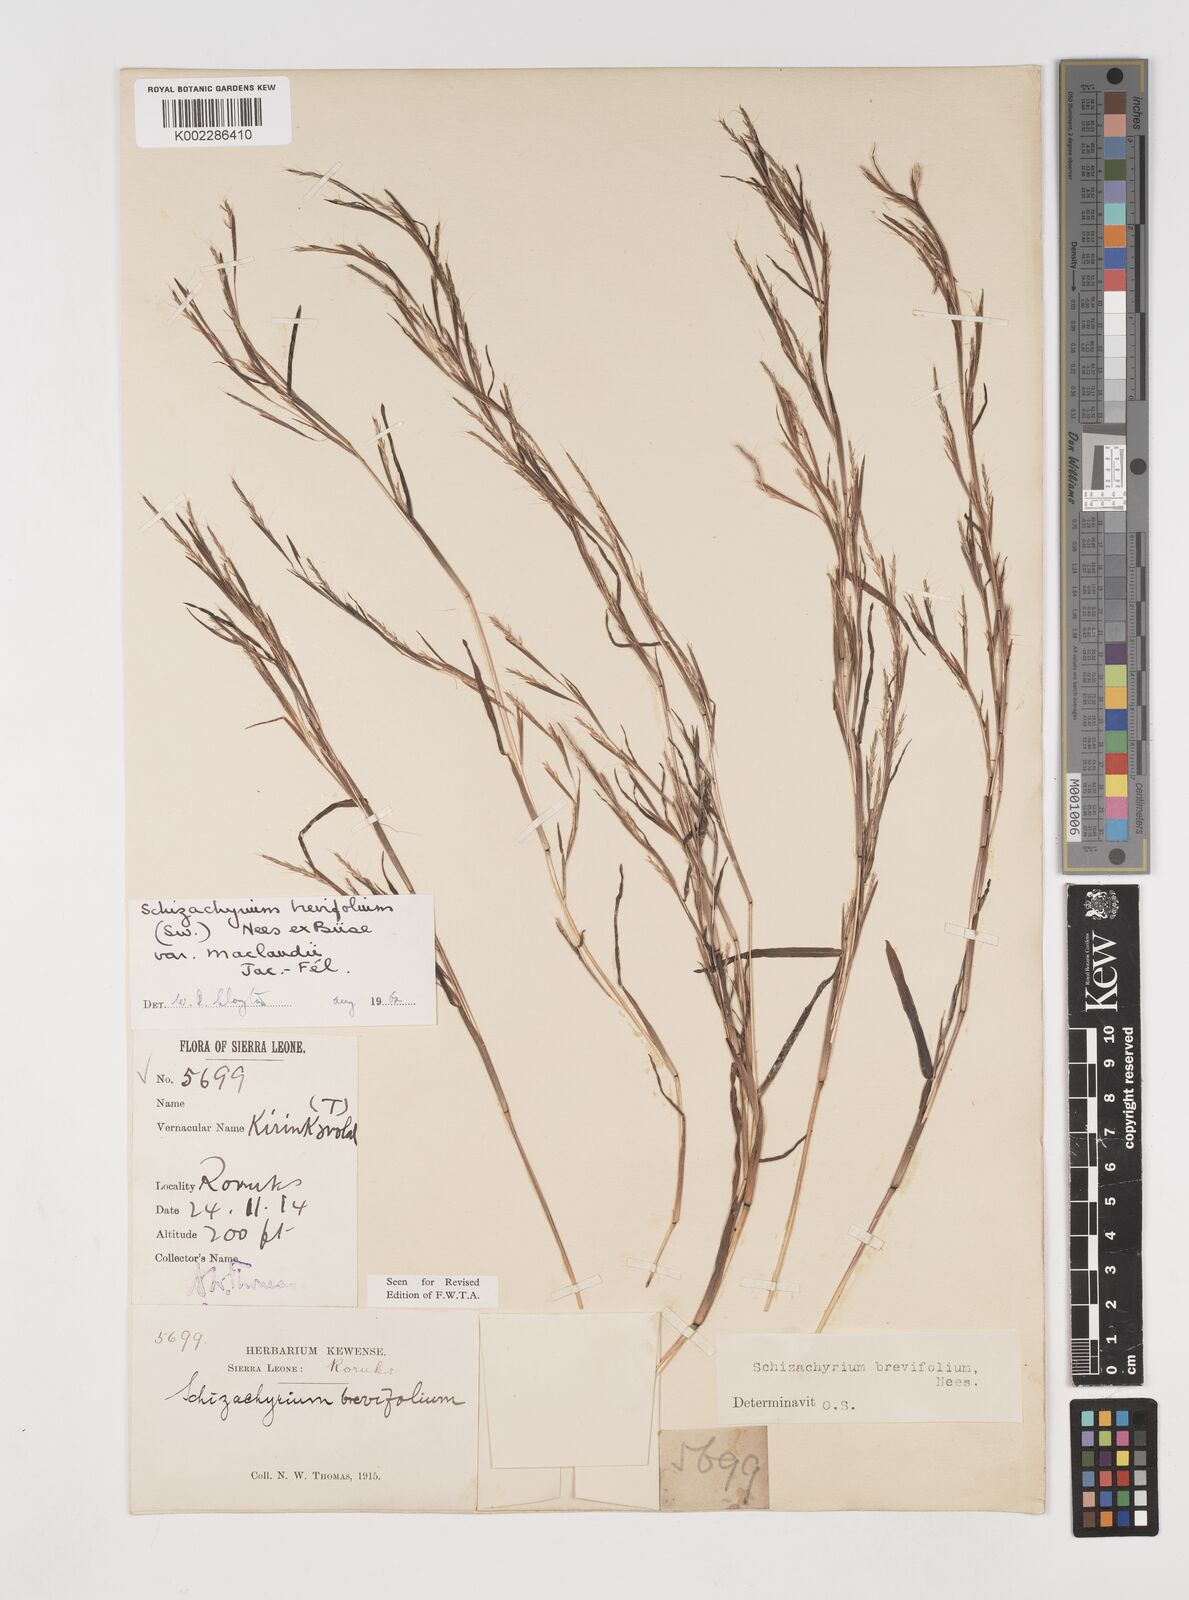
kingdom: Plantae
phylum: Tracheophyta
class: Liliopsida
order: Poales
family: Poaceae
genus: Schizachyrium
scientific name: Schizachyrium maclaudii
